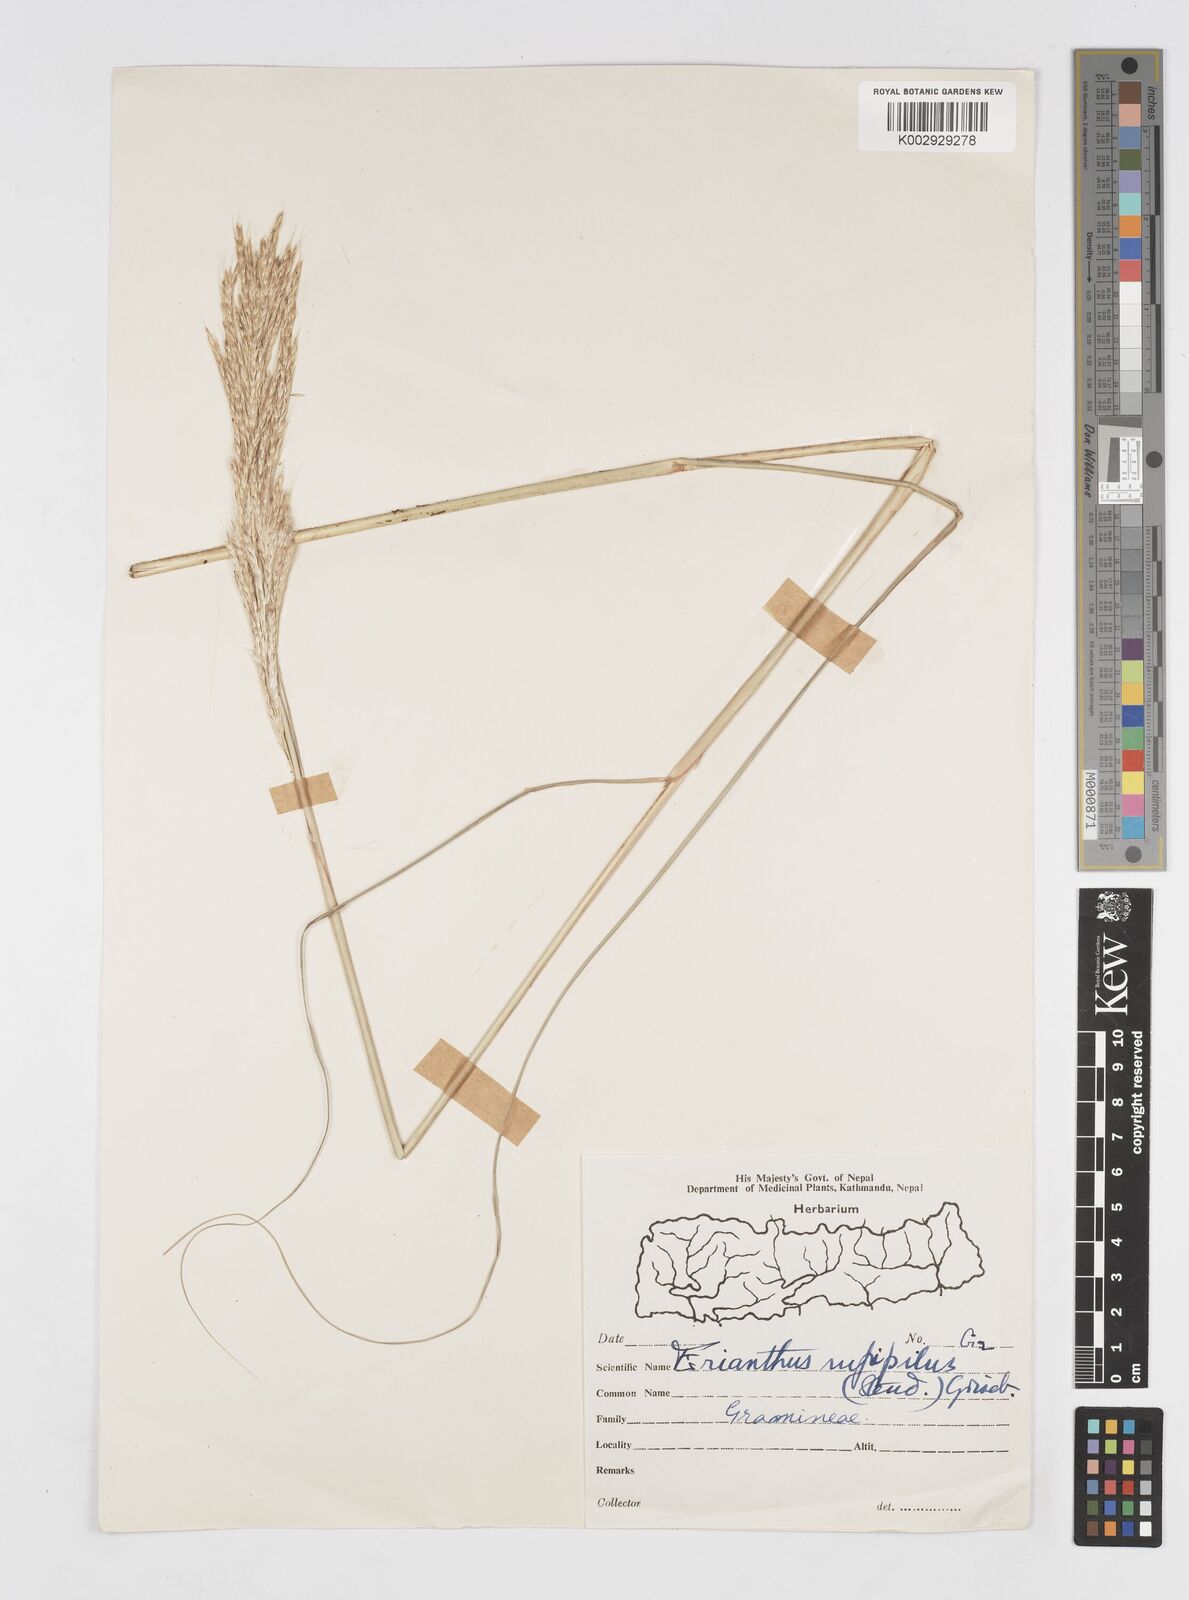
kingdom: Plantae
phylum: Tracheophyta
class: Liliopsida
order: Poales
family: Poaceae
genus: Tripidium
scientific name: Tripidium rufipilum
